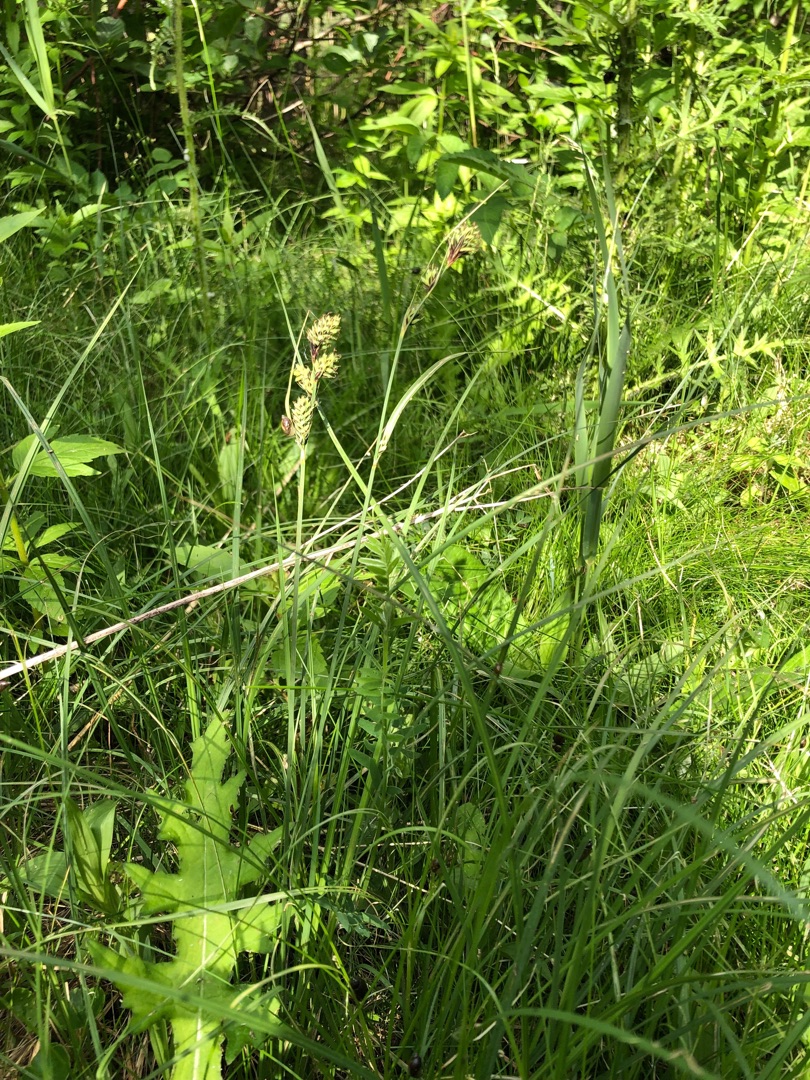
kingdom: Plantae
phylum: Tracheophyta
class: Liliopsida
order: Poales
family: Cyperaceae
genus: Carex
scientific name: Carex buxbaumii
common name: Kølle-star
